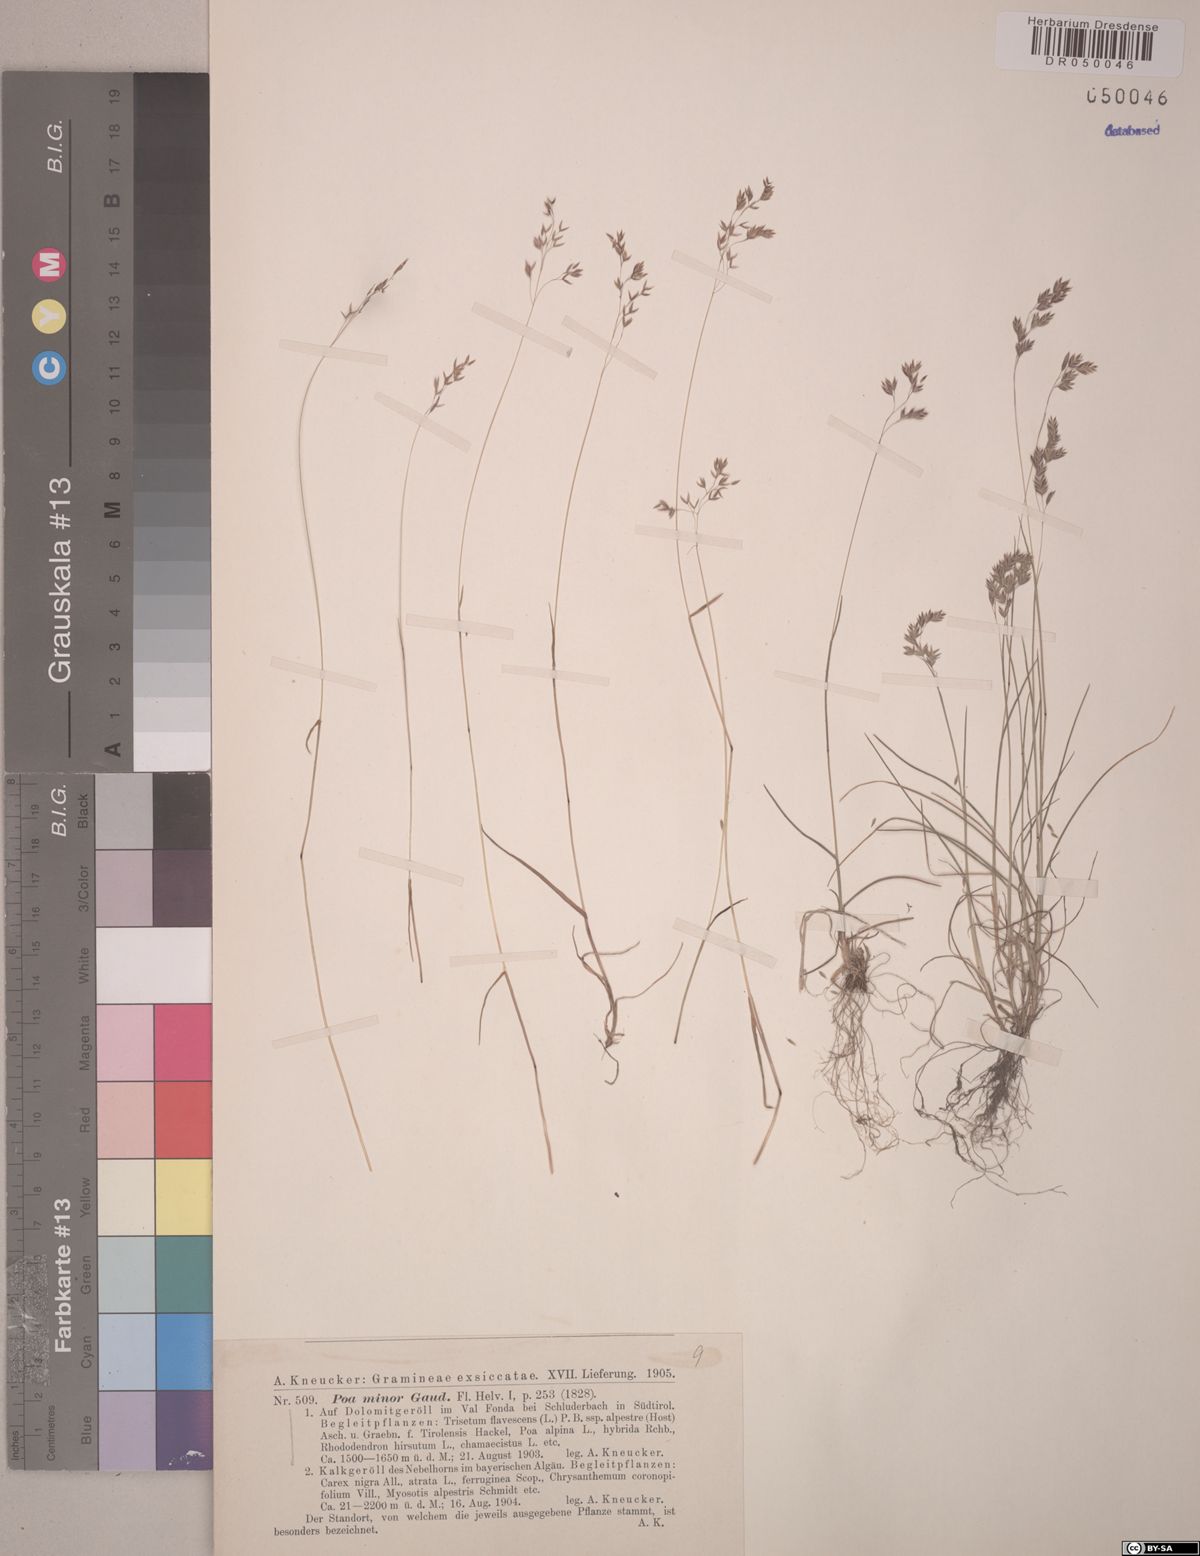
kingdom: Plantae
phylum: Tracheophyta
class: Liliopsida
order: Poales
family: Poaceae
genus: Poa
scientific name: Poa minor
